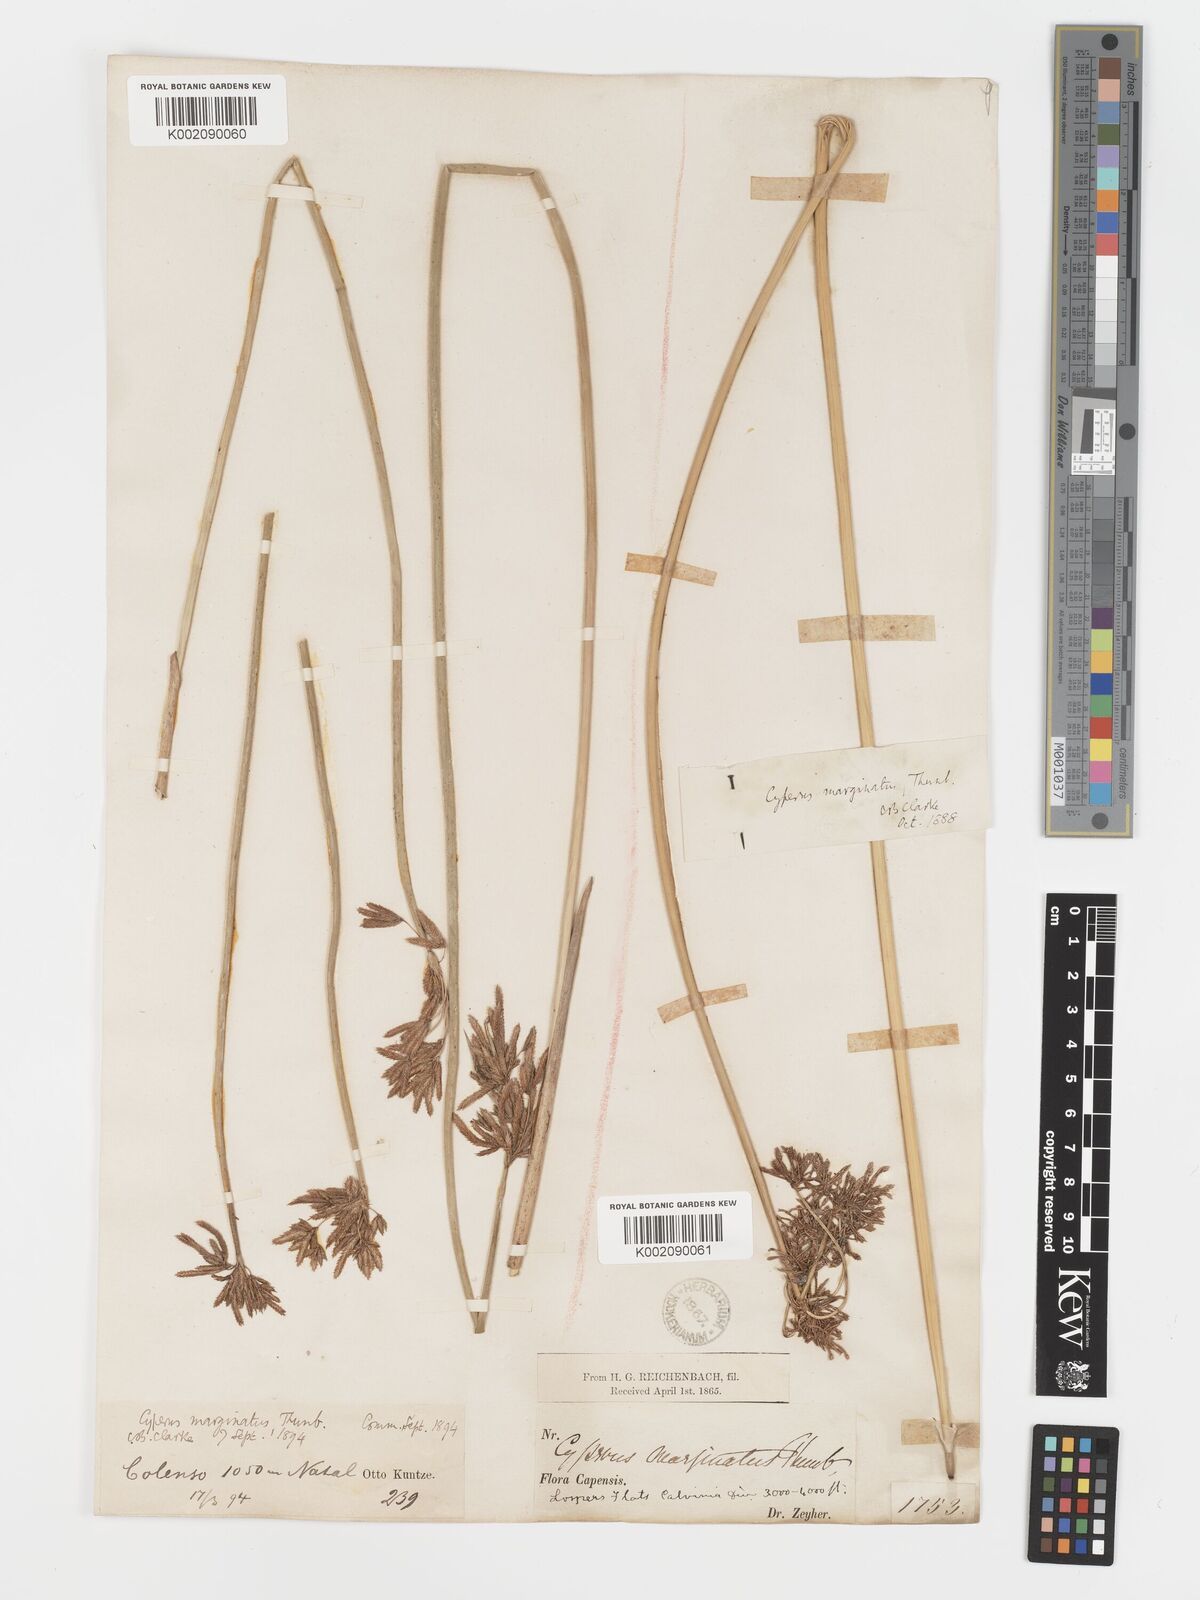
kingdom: Plantae
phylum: Tracheophyta
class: Liliopsida
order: Poales
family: Cyperaceae
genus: Cyperus
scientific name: Cyperus marginatus
